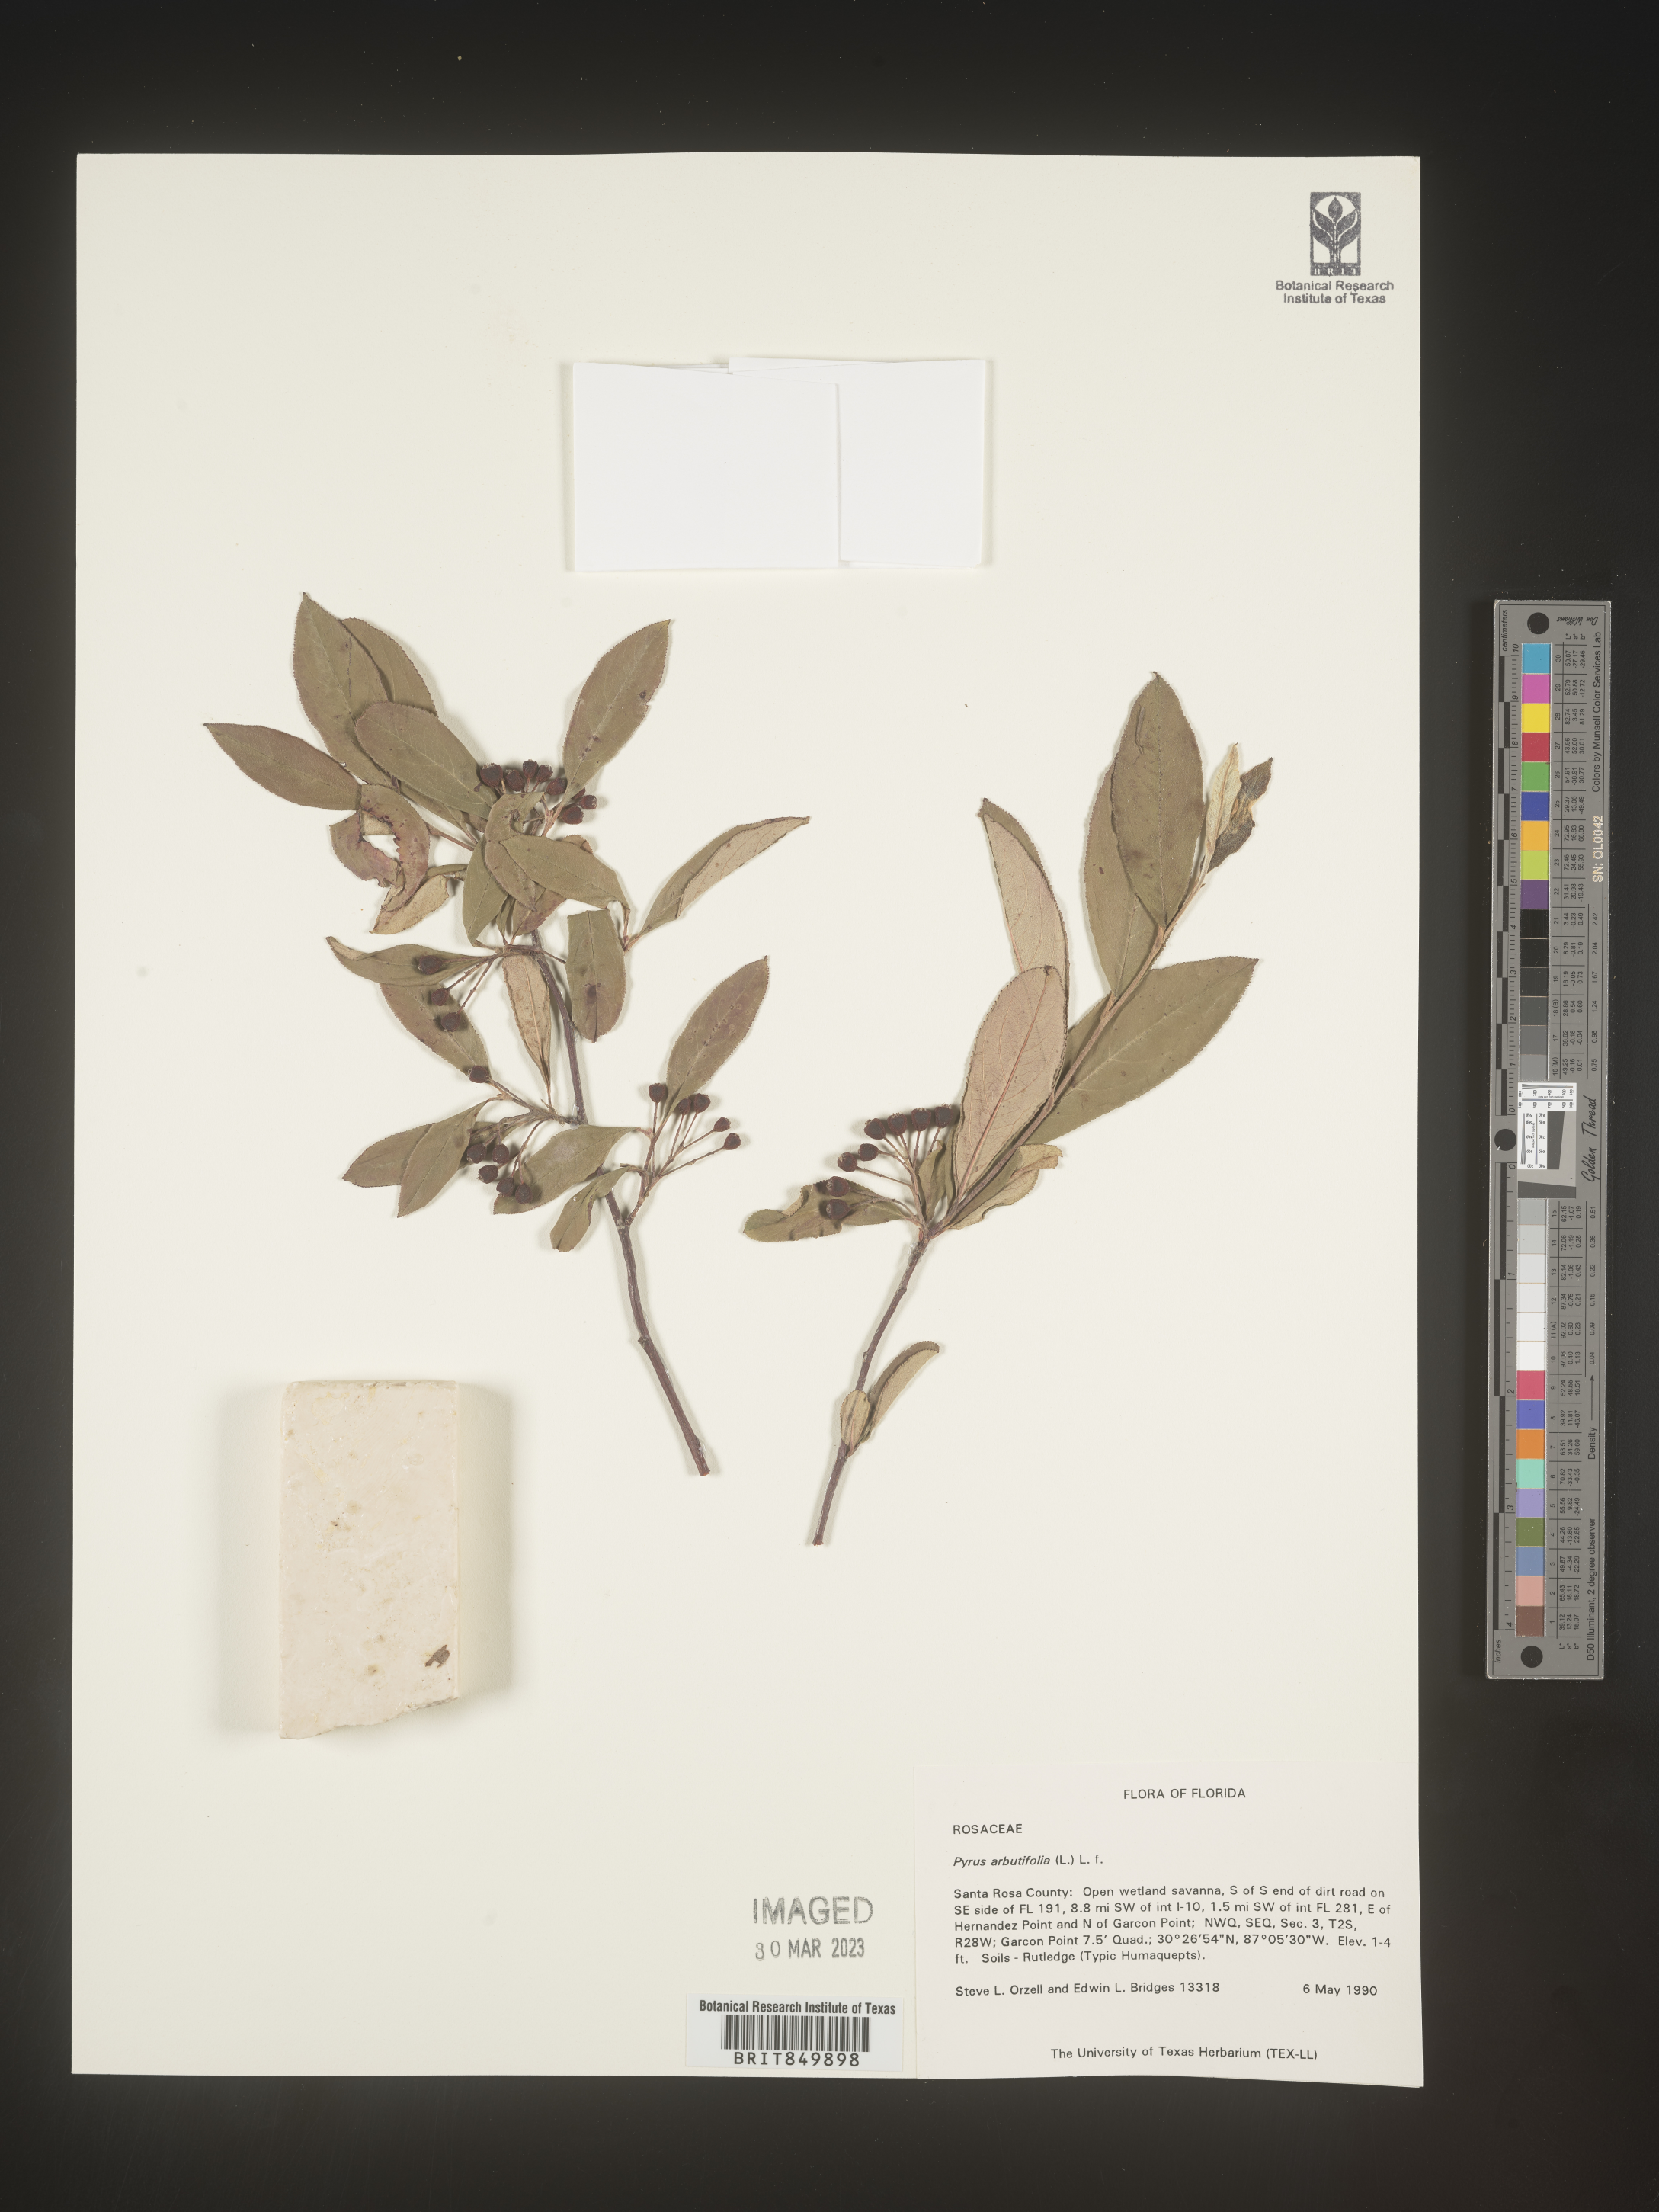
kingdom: Plantae
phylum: Tracheophyta
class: Magnoliopsida
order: Rosales
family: Rosaceae
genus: Pyrus
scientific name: Pyrus
